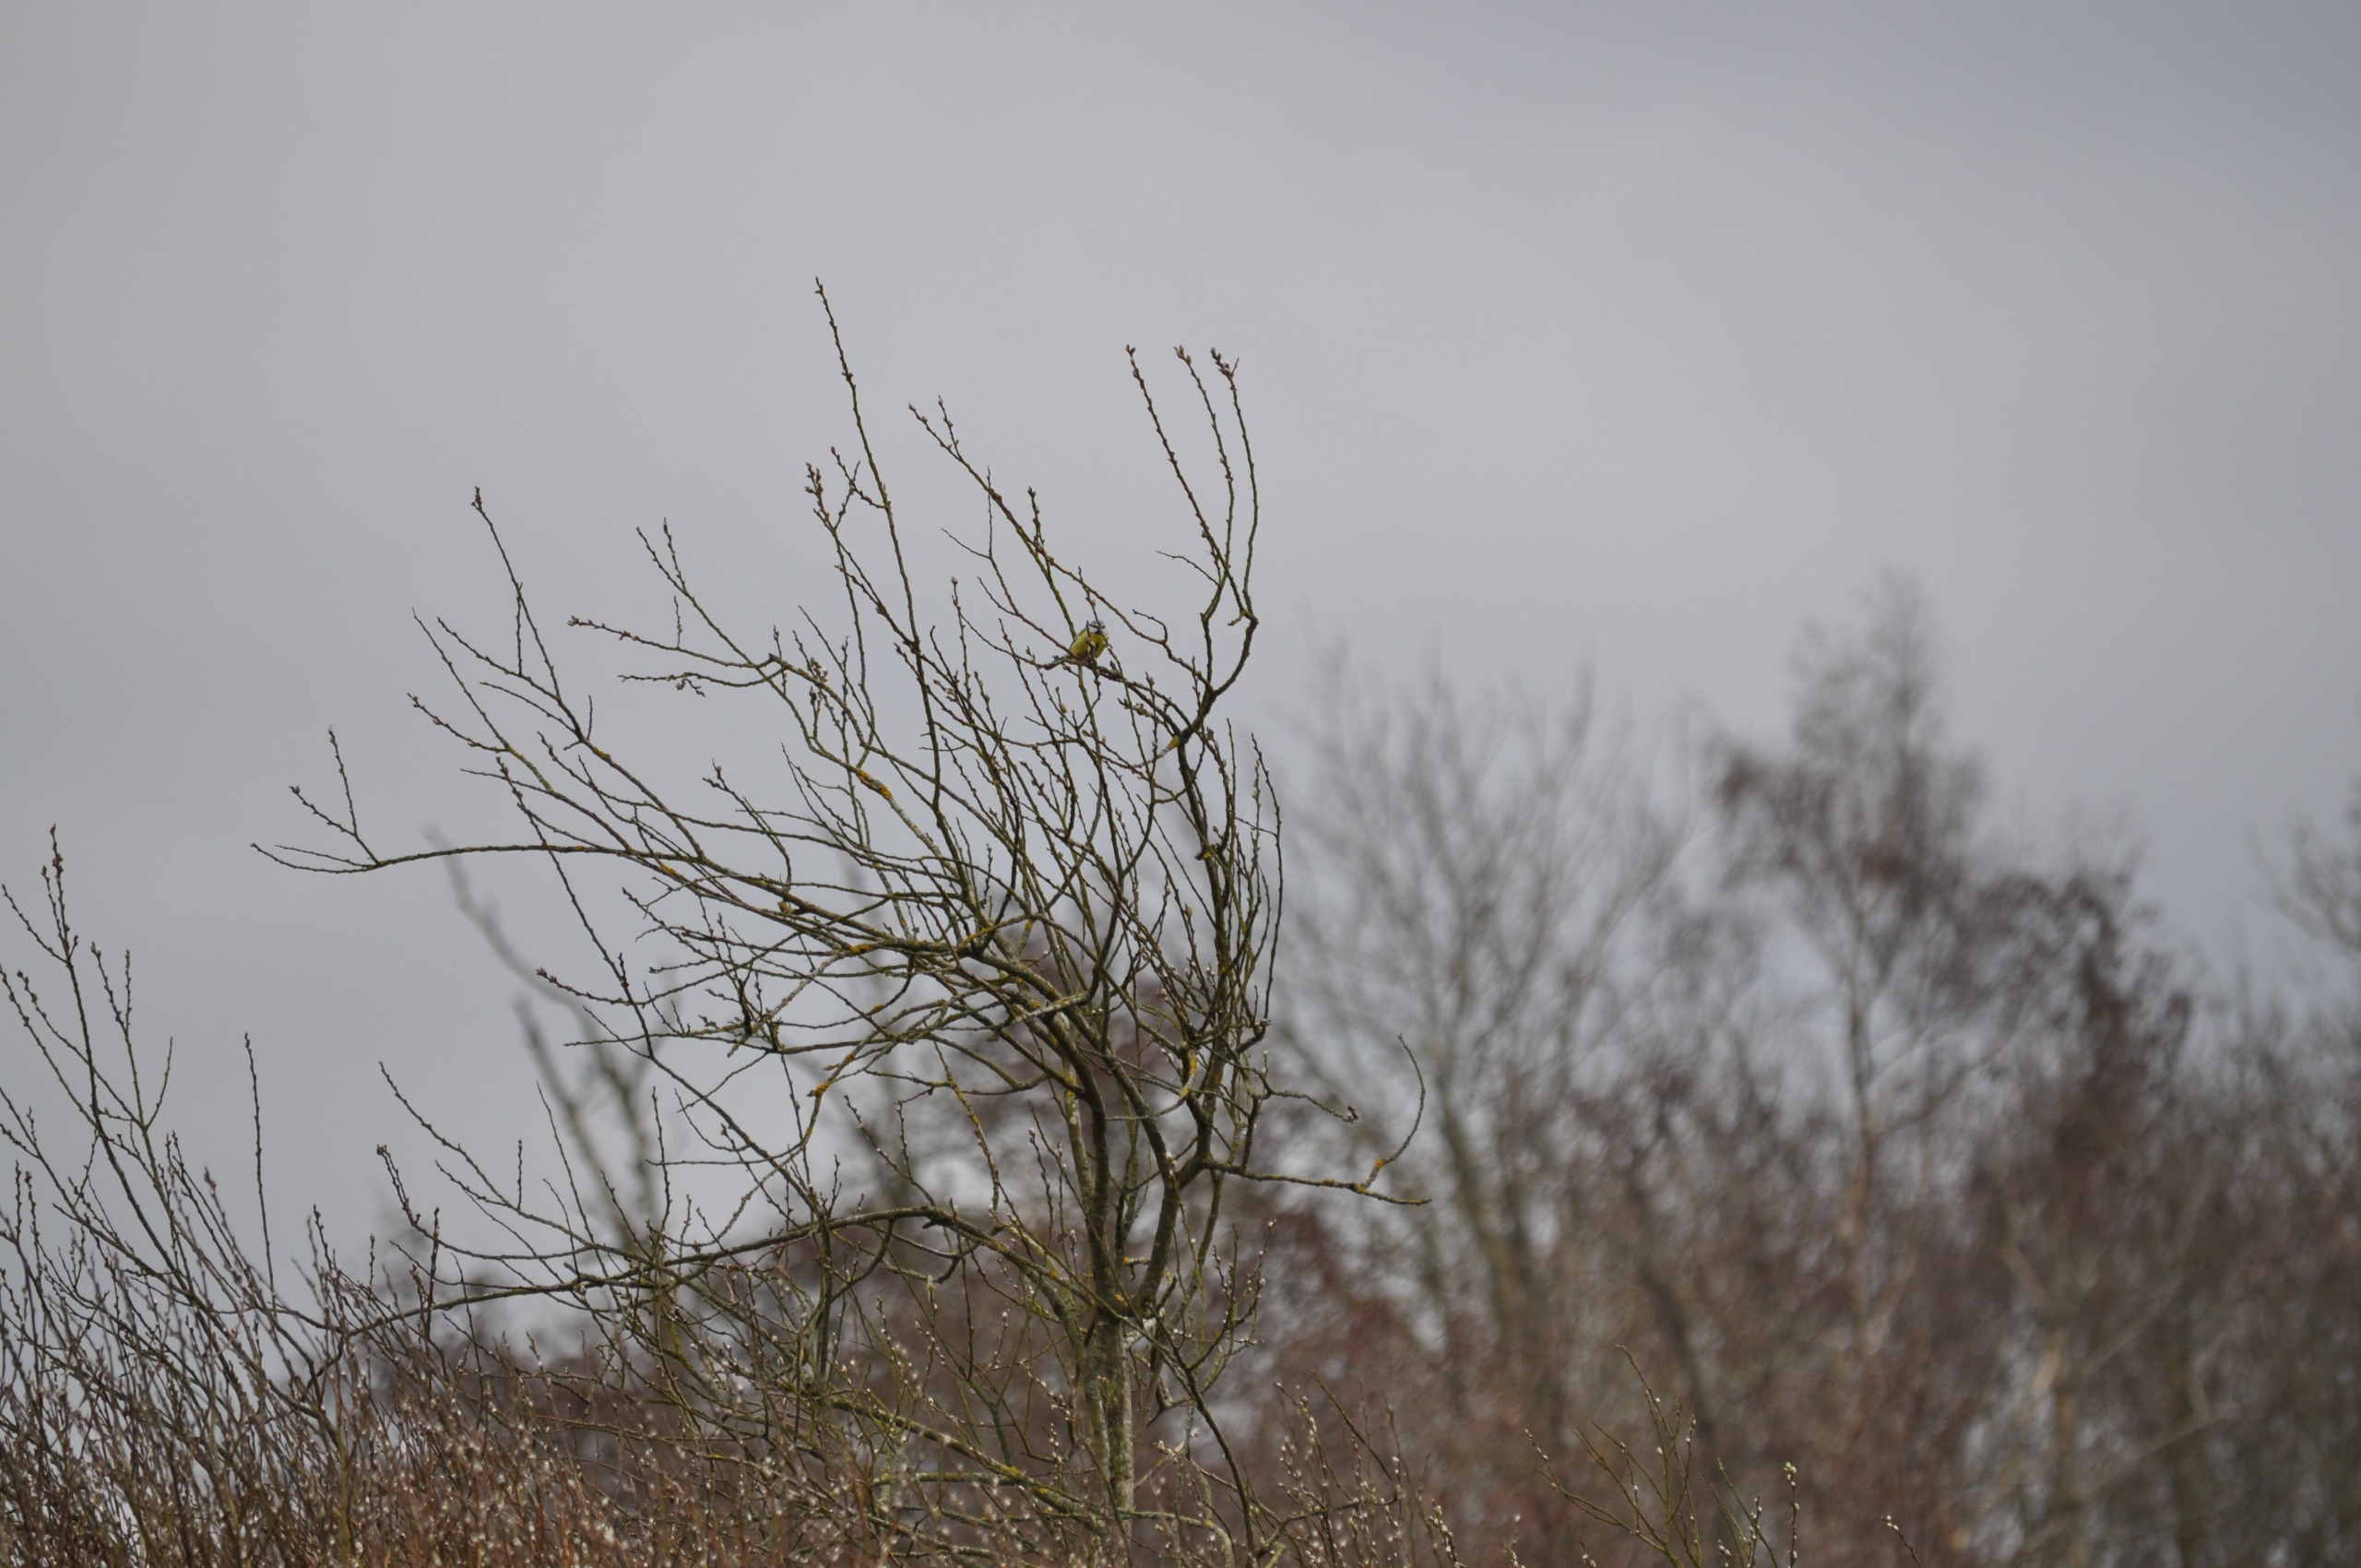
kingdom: Animalia
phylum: Chordata
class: Aves
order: Passeriformes
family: Paridae
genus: Cyanistes
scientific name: Cyanistes caeruleus
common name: Blåmejse
